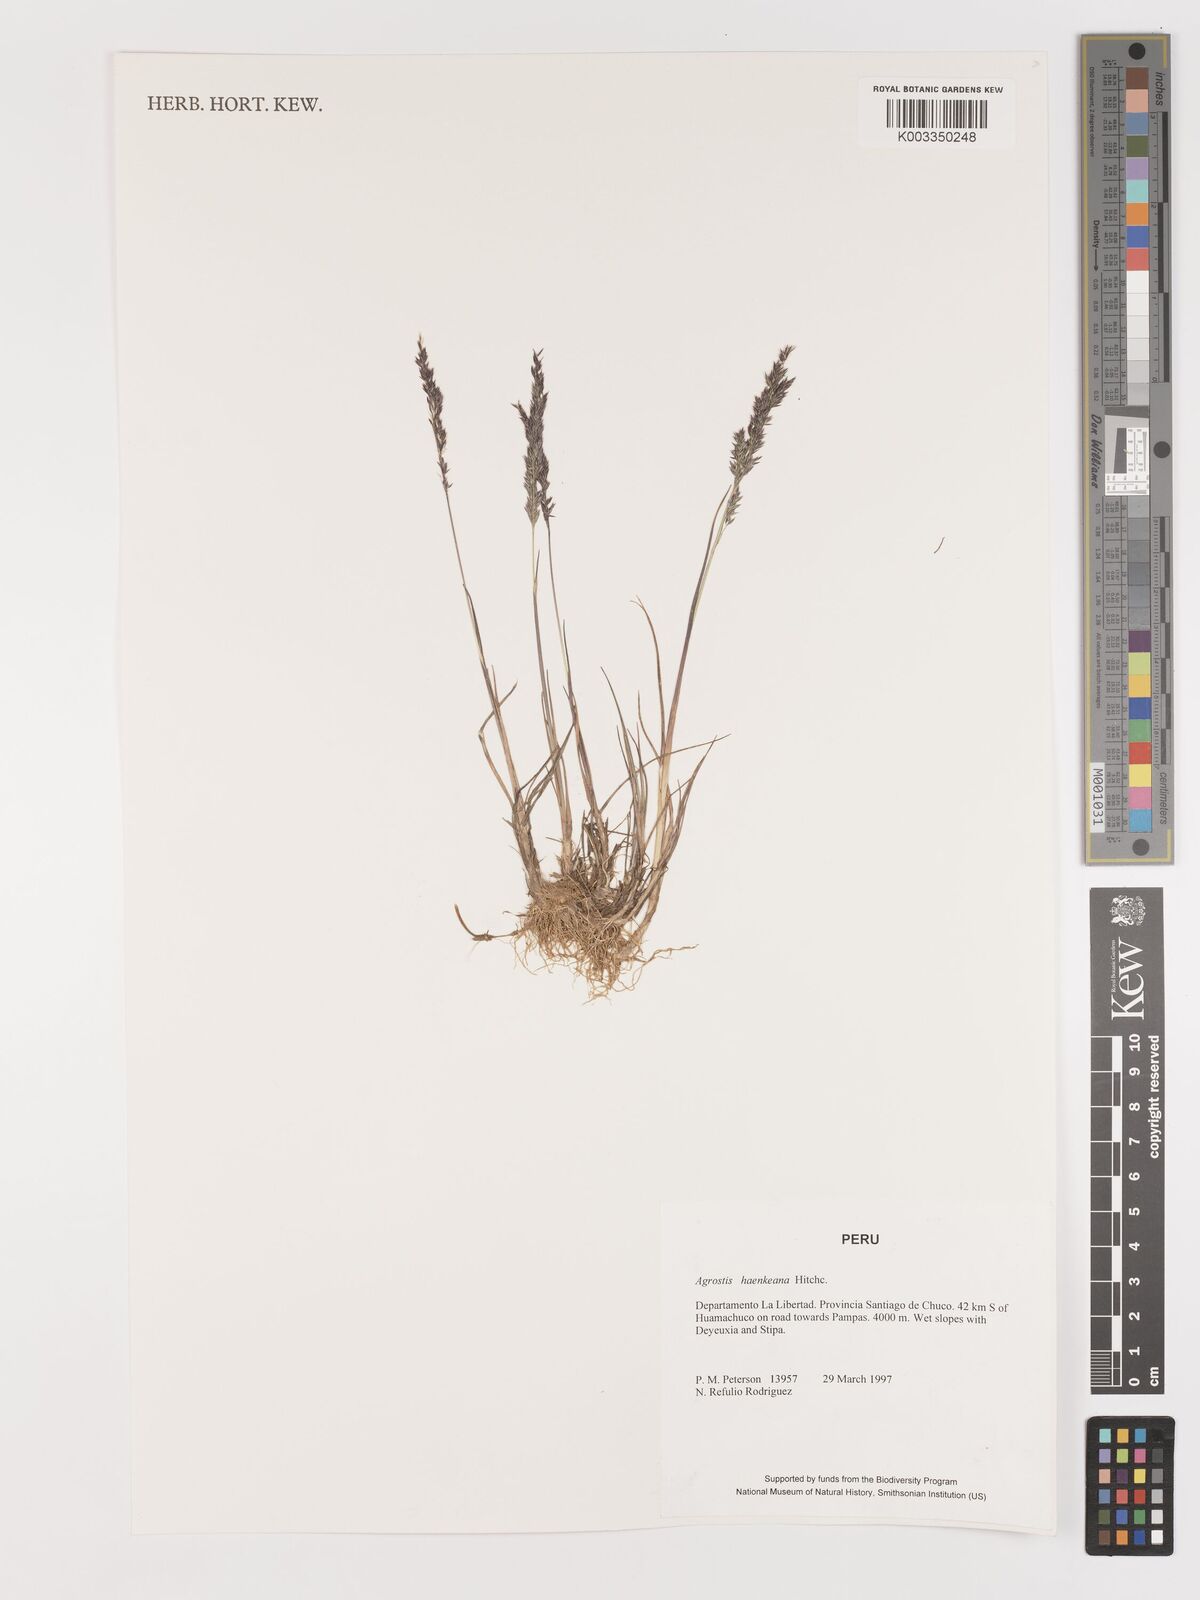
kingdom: Plantae
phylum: Tracheophyta
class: Liliopsida
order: Poales
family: Poaceae
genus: Agrostis
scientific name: Agrostis
